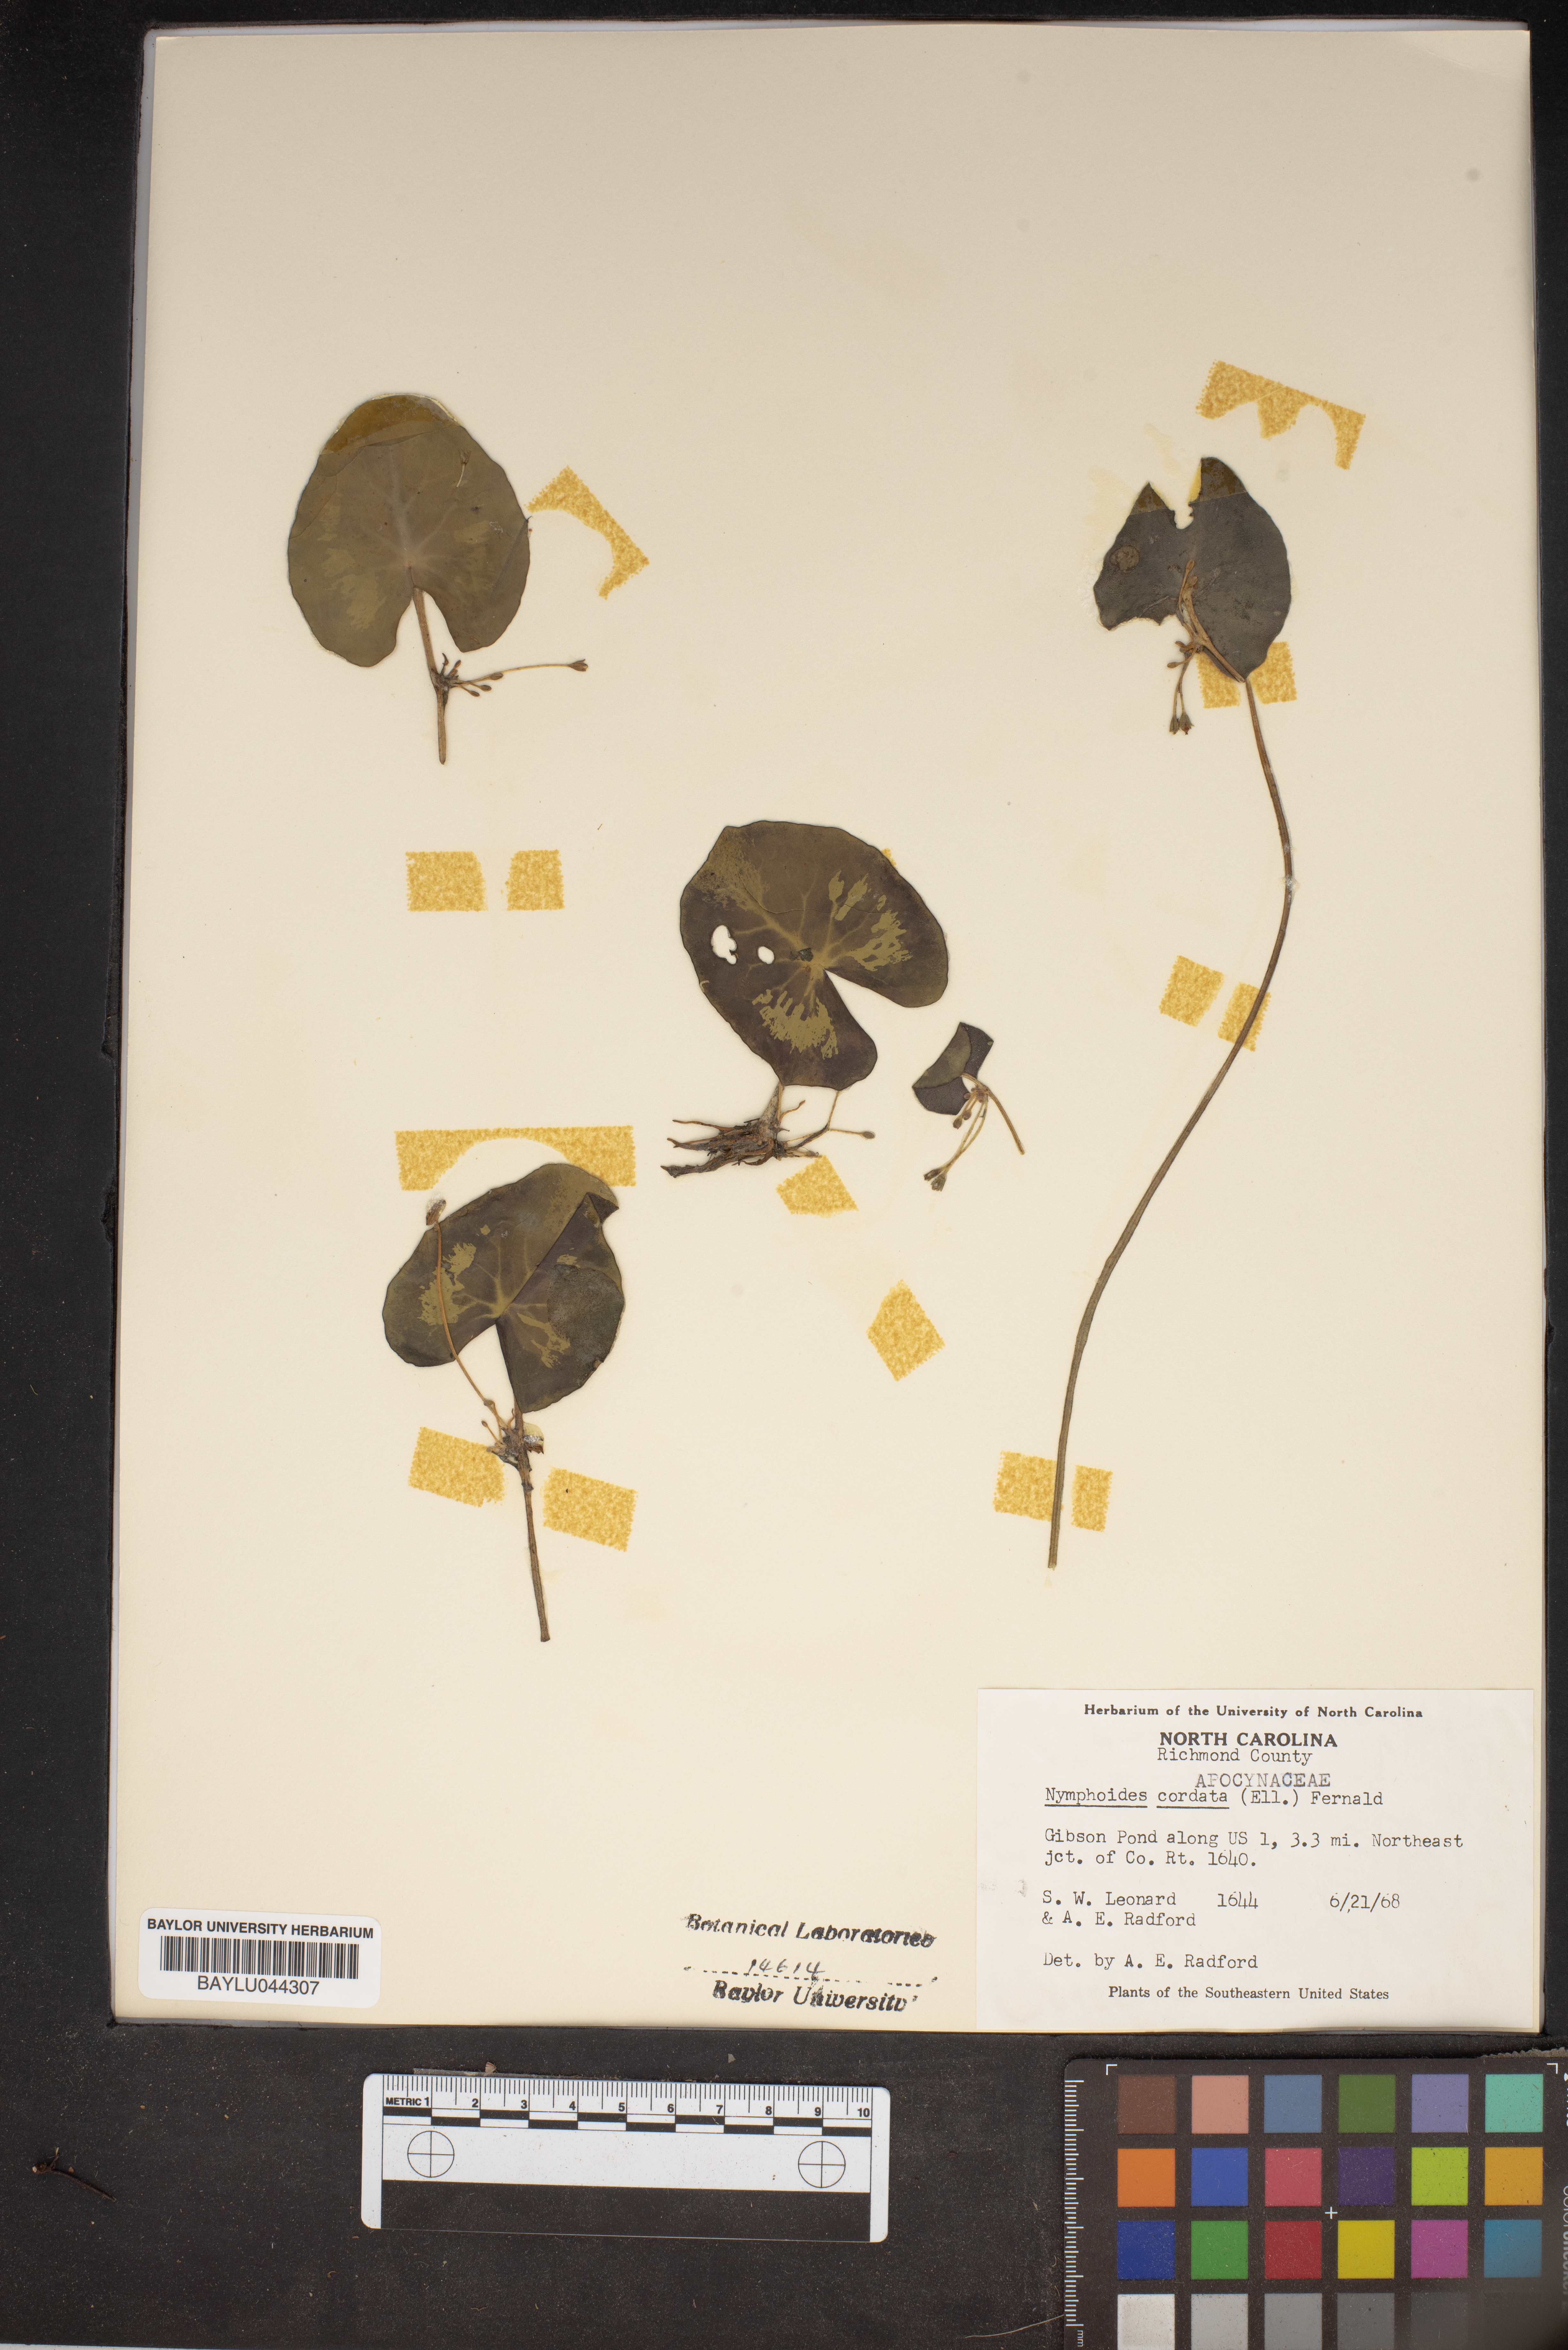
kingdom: Plantae
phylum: Tracheophyta
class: Magnoliopsida
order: Asterales
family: Menyanthaceae
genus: Nymphoides
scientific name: Nymphoides cordata
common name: Eight-angled floatingheart
